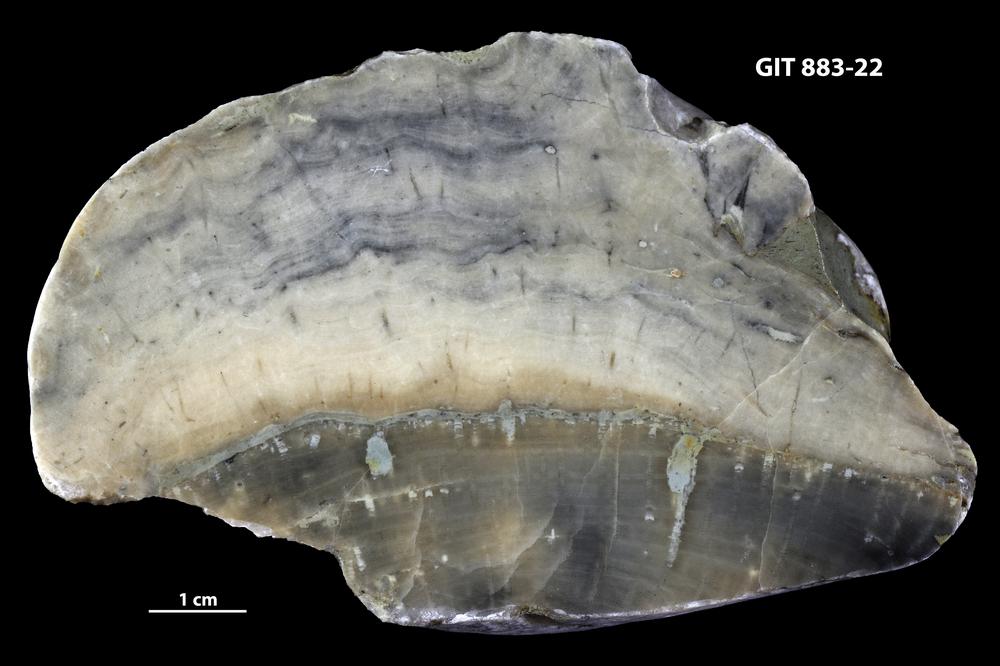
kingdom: Animalia
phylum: Porifera
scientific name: Porifera
